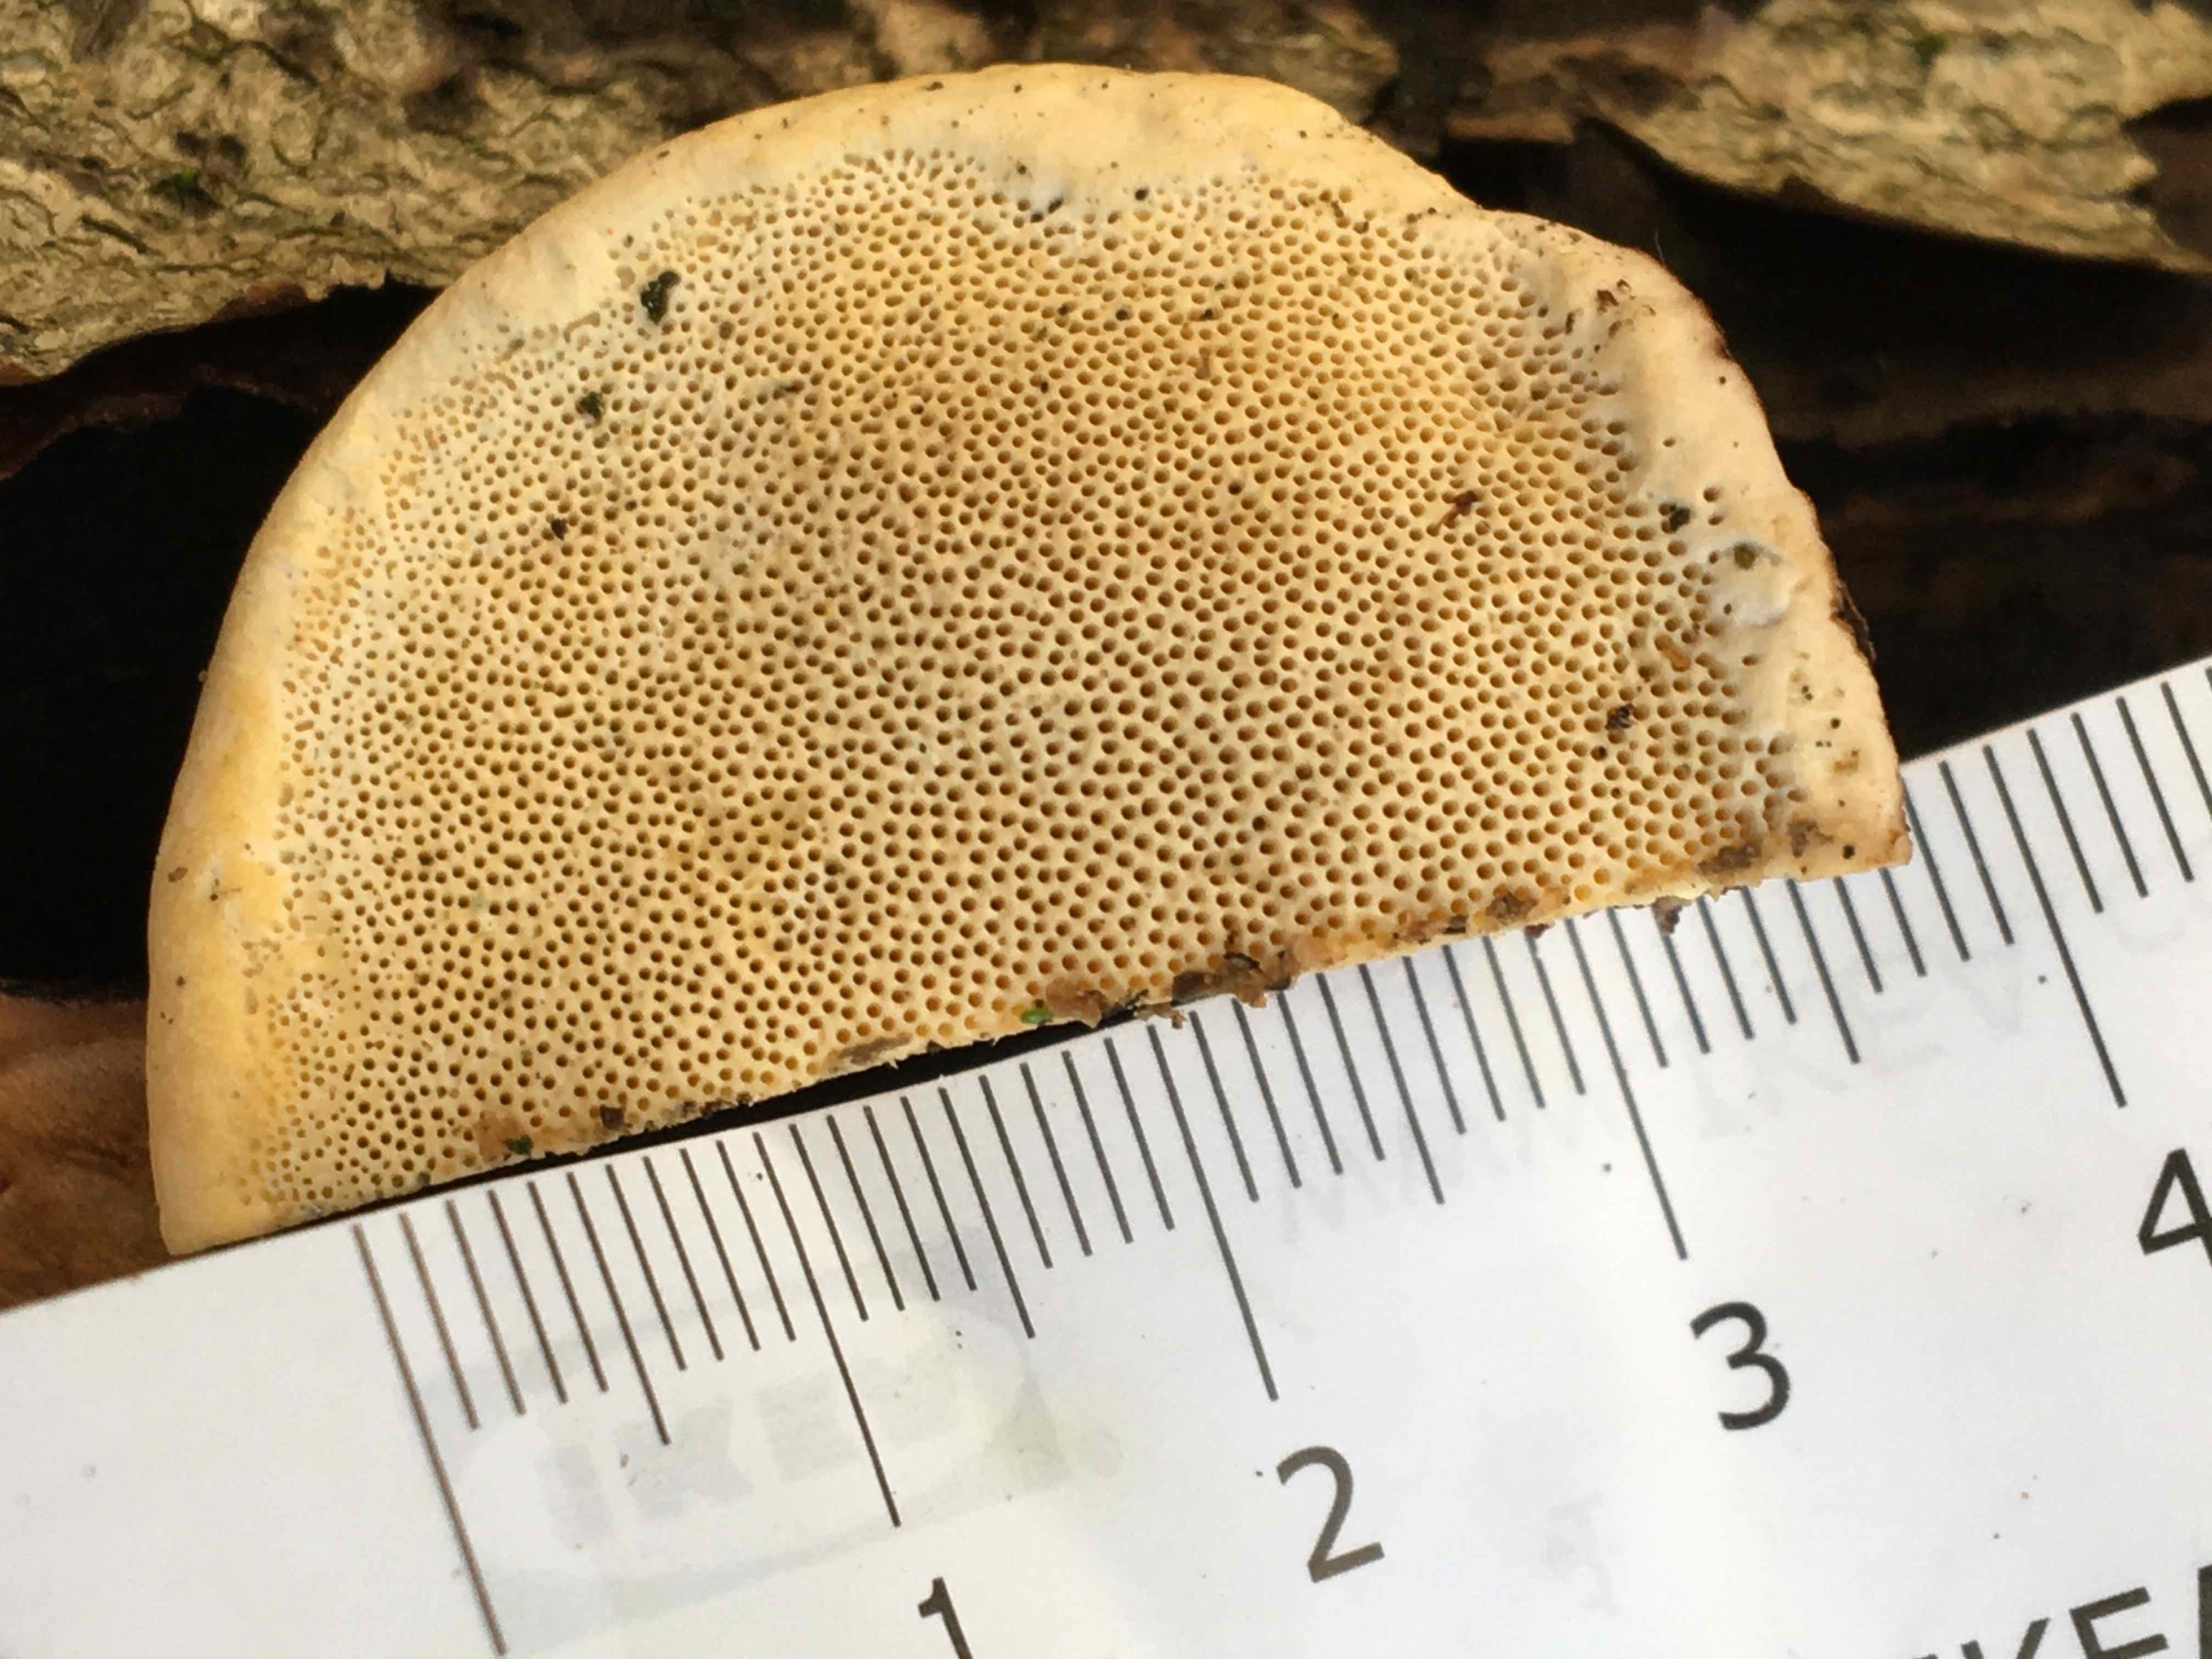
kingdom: Fungi
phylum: Basidiomycota
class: Agaricomycetes
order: Polyporales
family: Fomitopsidaceae
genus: Fomitopsis
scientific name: Fomitopsis pinicola
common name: randbæltet hovporesvamp
